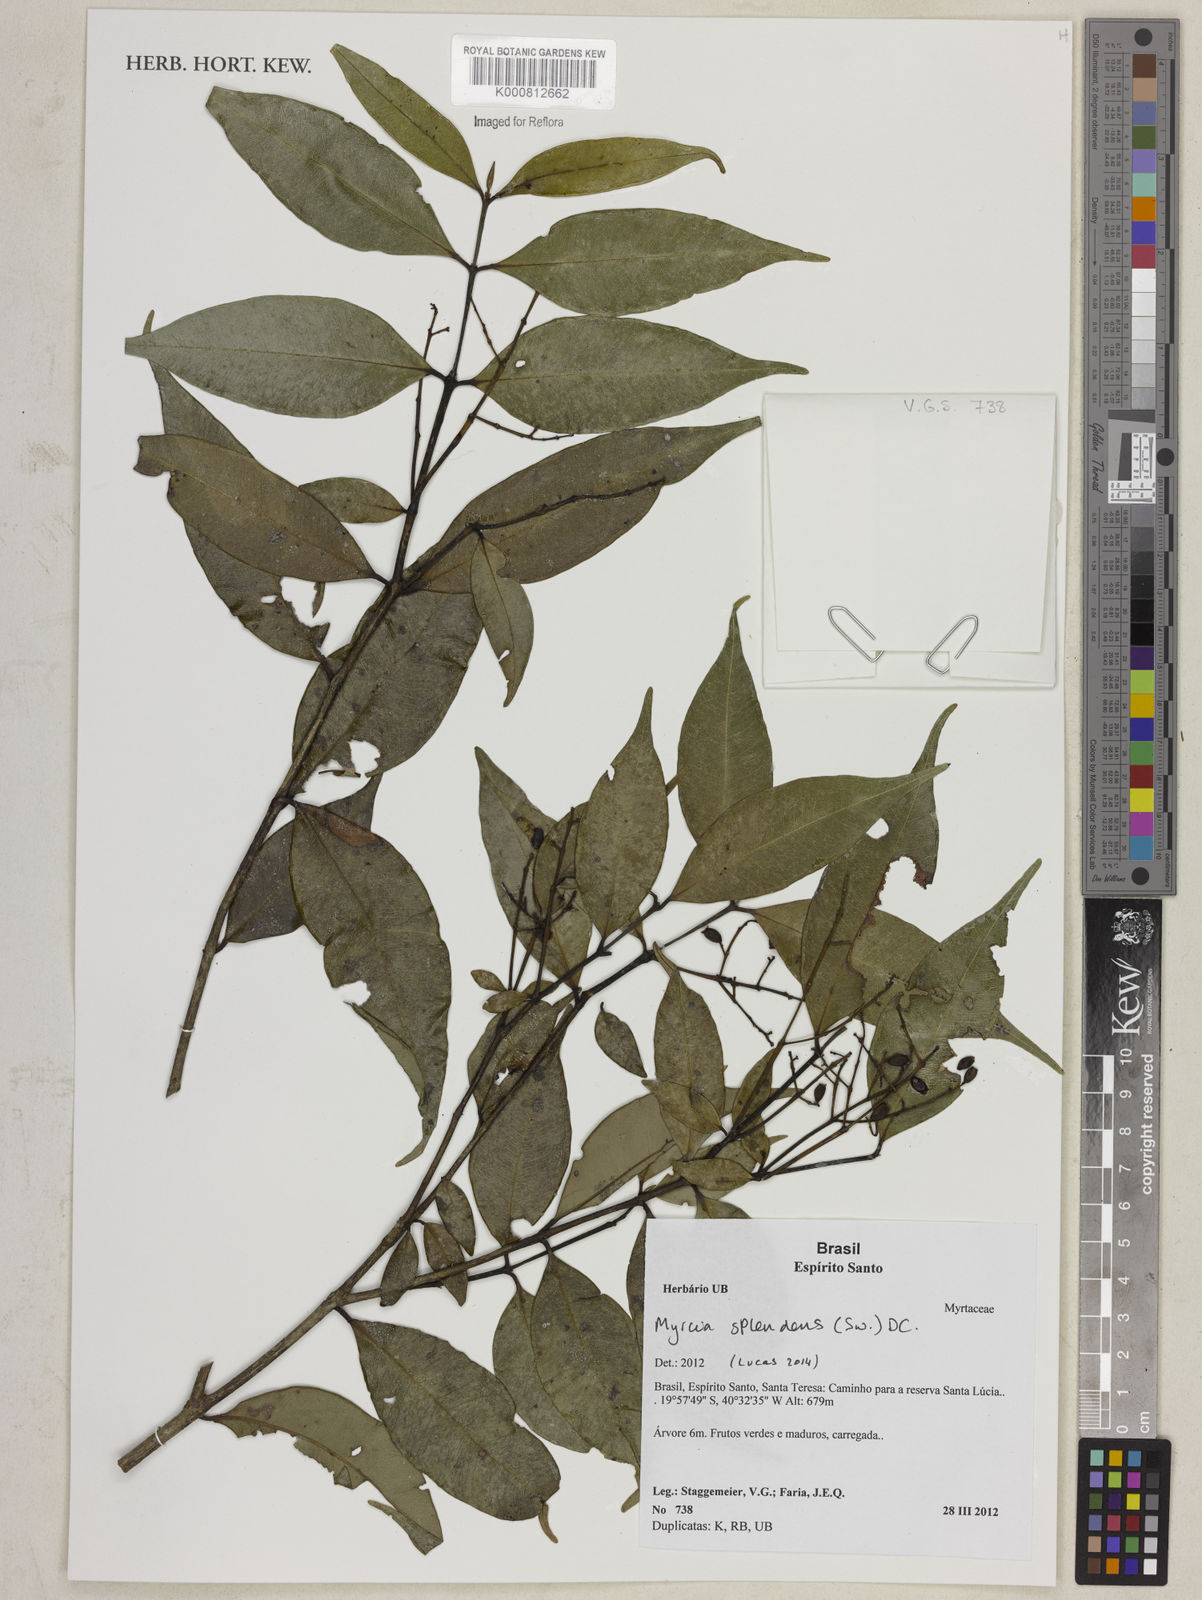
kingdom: Plantae
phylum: Tracheophyta
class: Magnoliopsida
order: Myrtales
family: Myrtaceae
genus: Myrcia
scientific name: Myrcia splendens
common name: Surinam cherry
